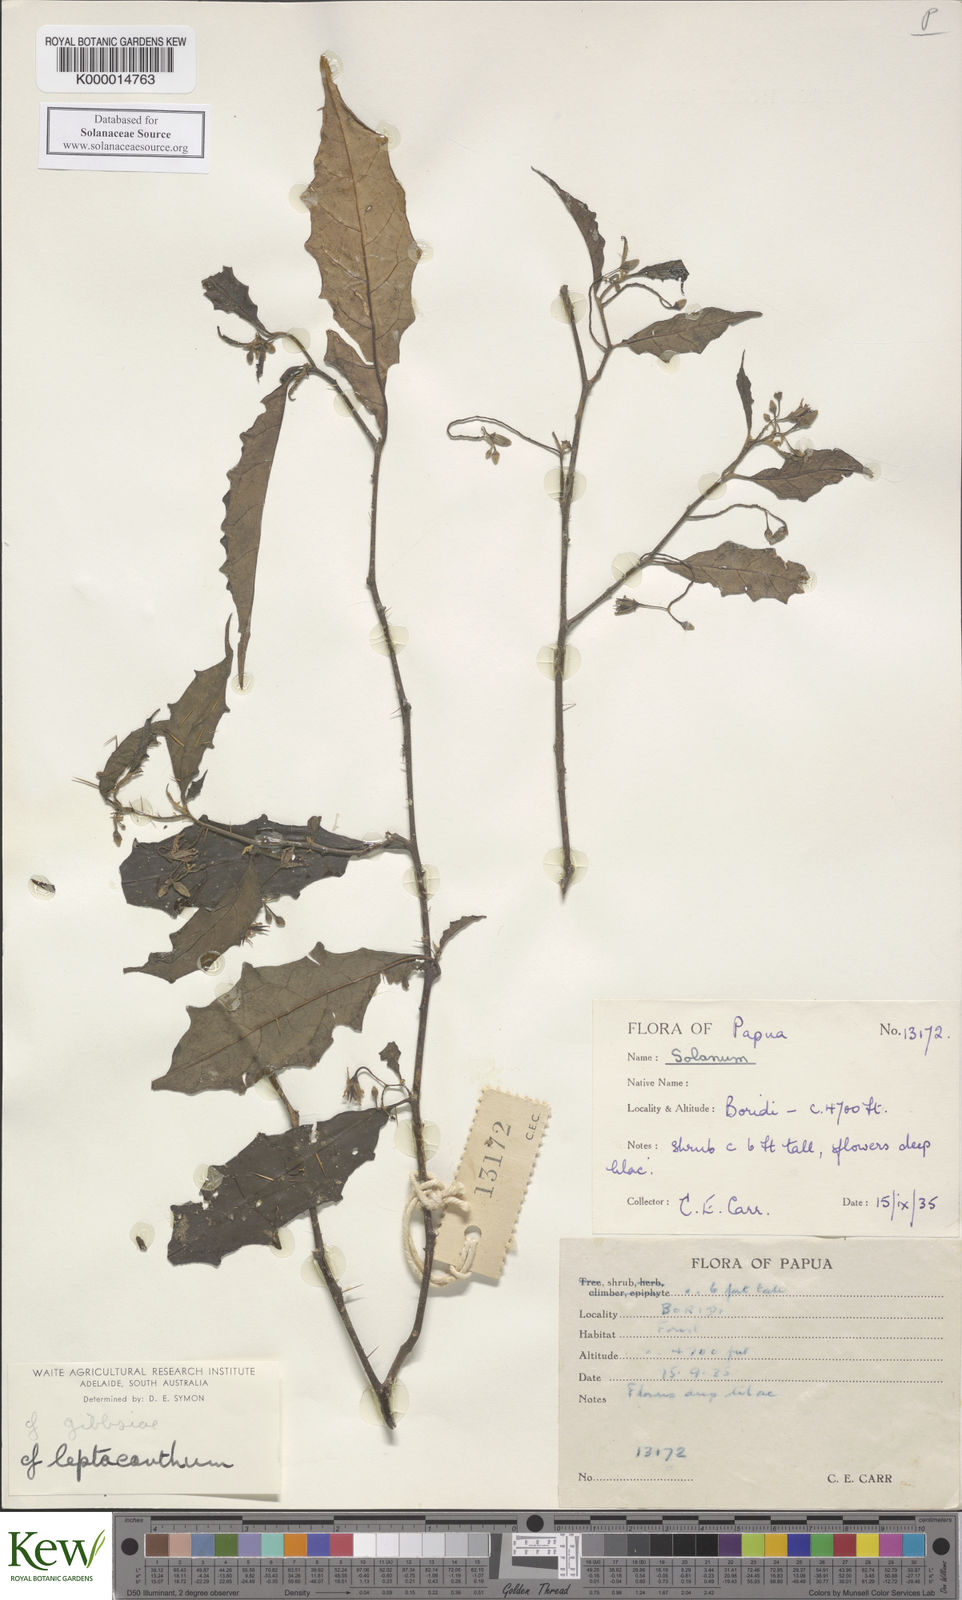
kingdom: Plantae
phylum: Tracheophyta
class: Magnoliopsida
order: Solanales
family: Solanaceae
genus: Solanum
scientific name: Solanum leptacanthum
